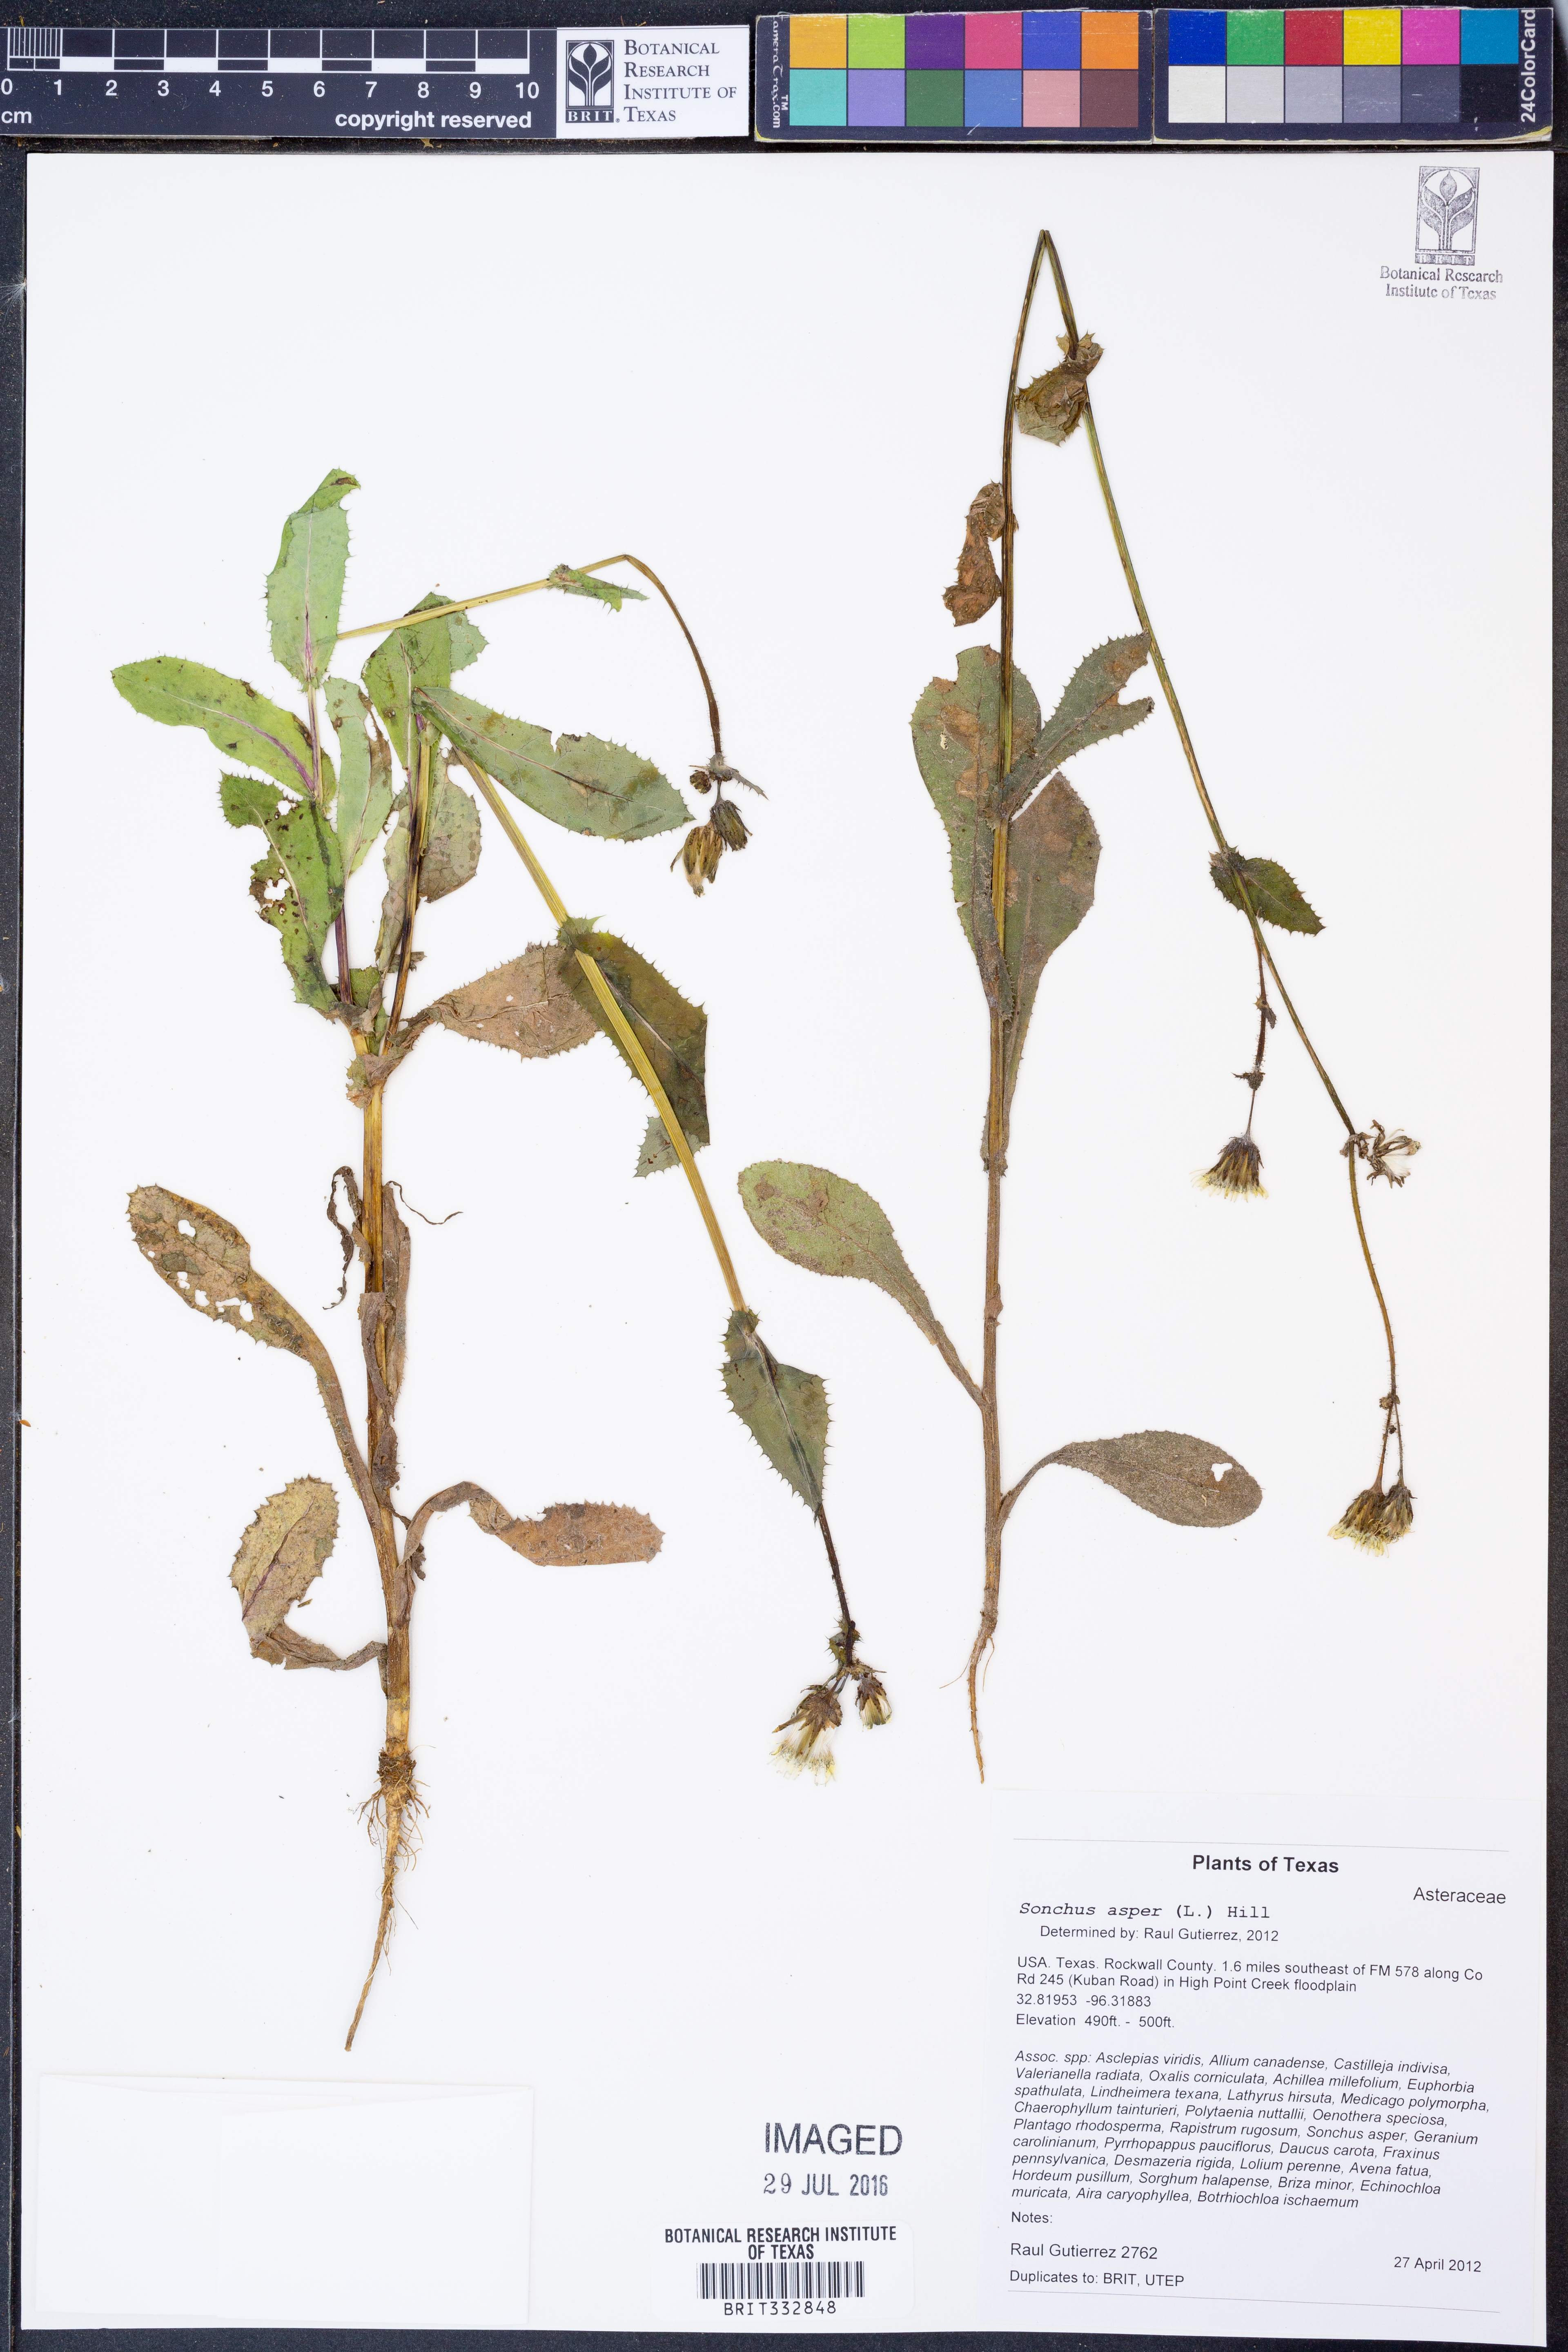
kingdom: Plantae
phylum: Tracheophyta
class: Magnoliopsida
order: Asterales
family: Asteraceae
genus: Sonchus
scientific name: Sonchus asper
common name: Prickly sow-thistle
